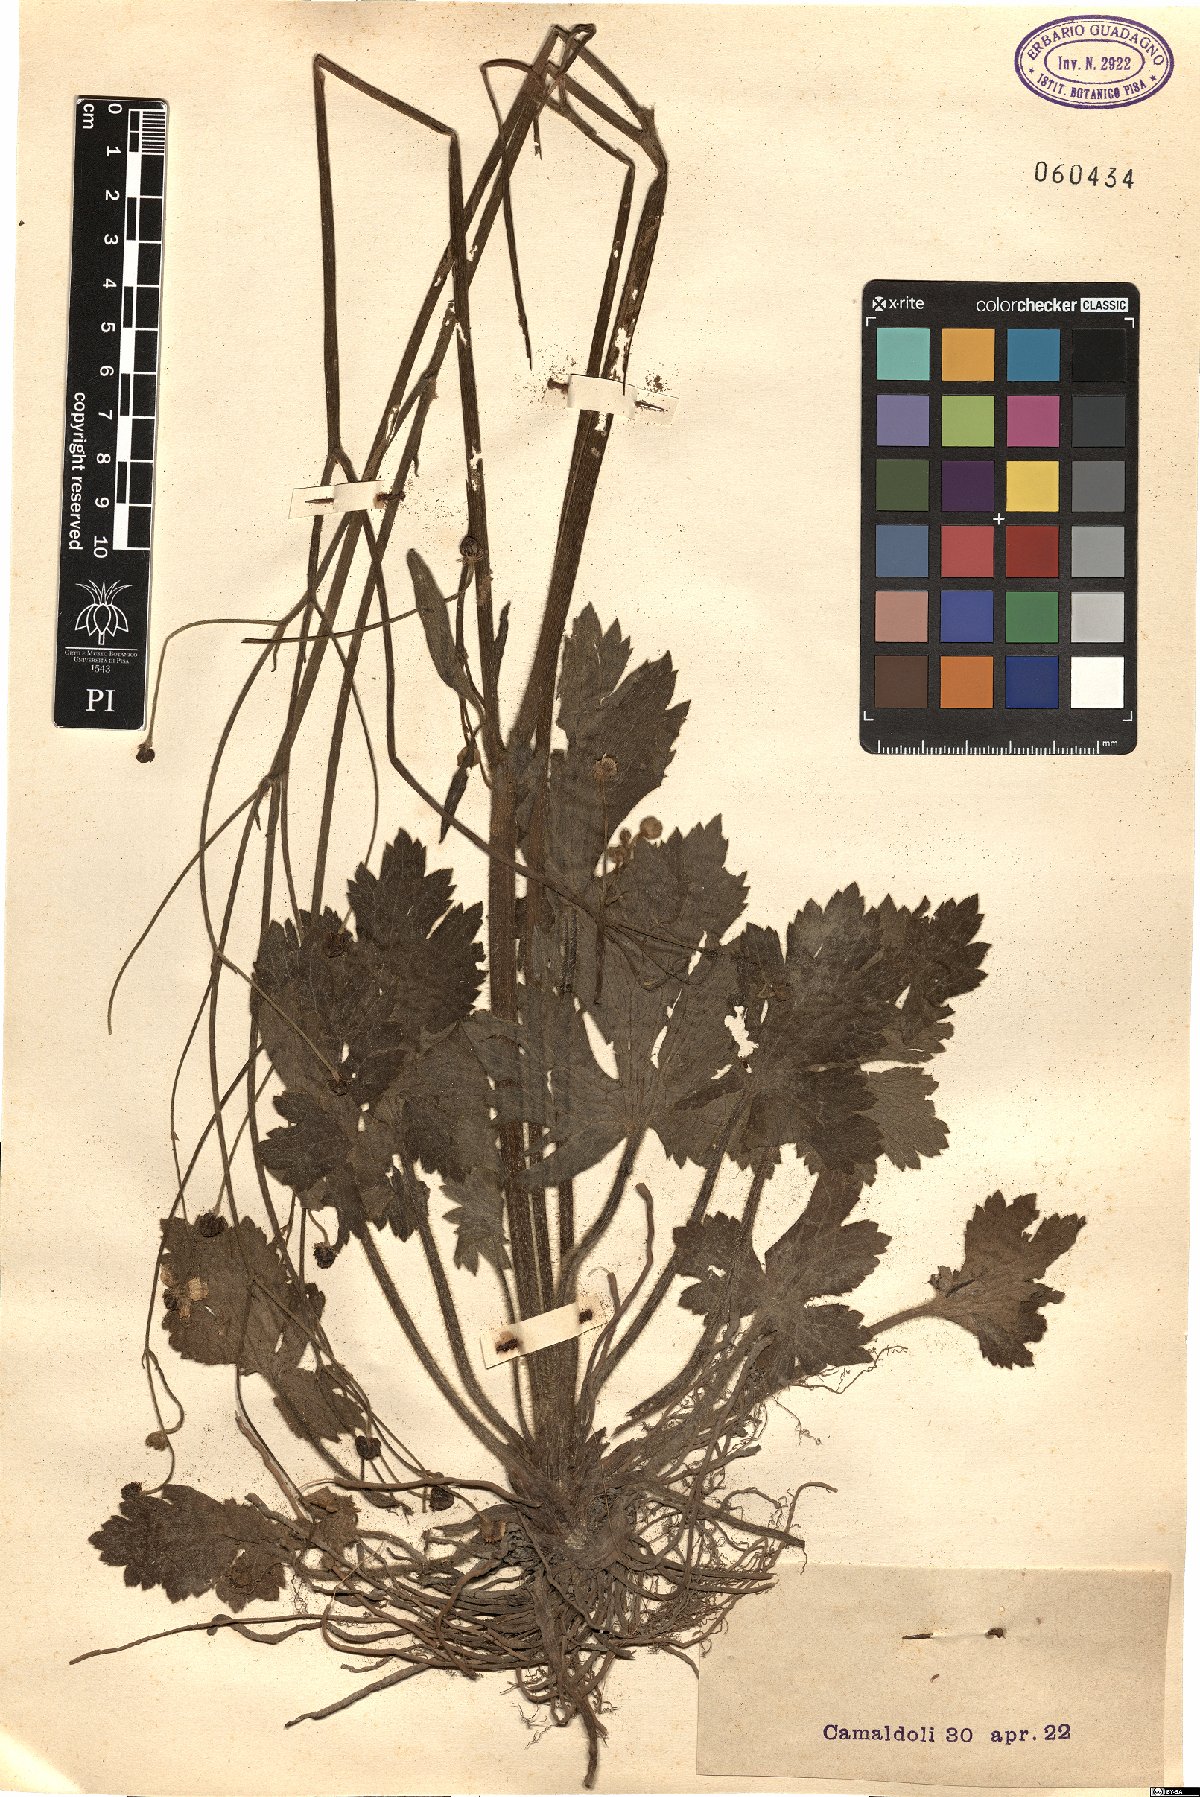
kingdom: Plantae
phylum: Tracheophyta
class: Magnoliopsida
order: Ranunculales
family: Ranunculaceae
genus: Ranunculus
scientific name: Ranunculus
